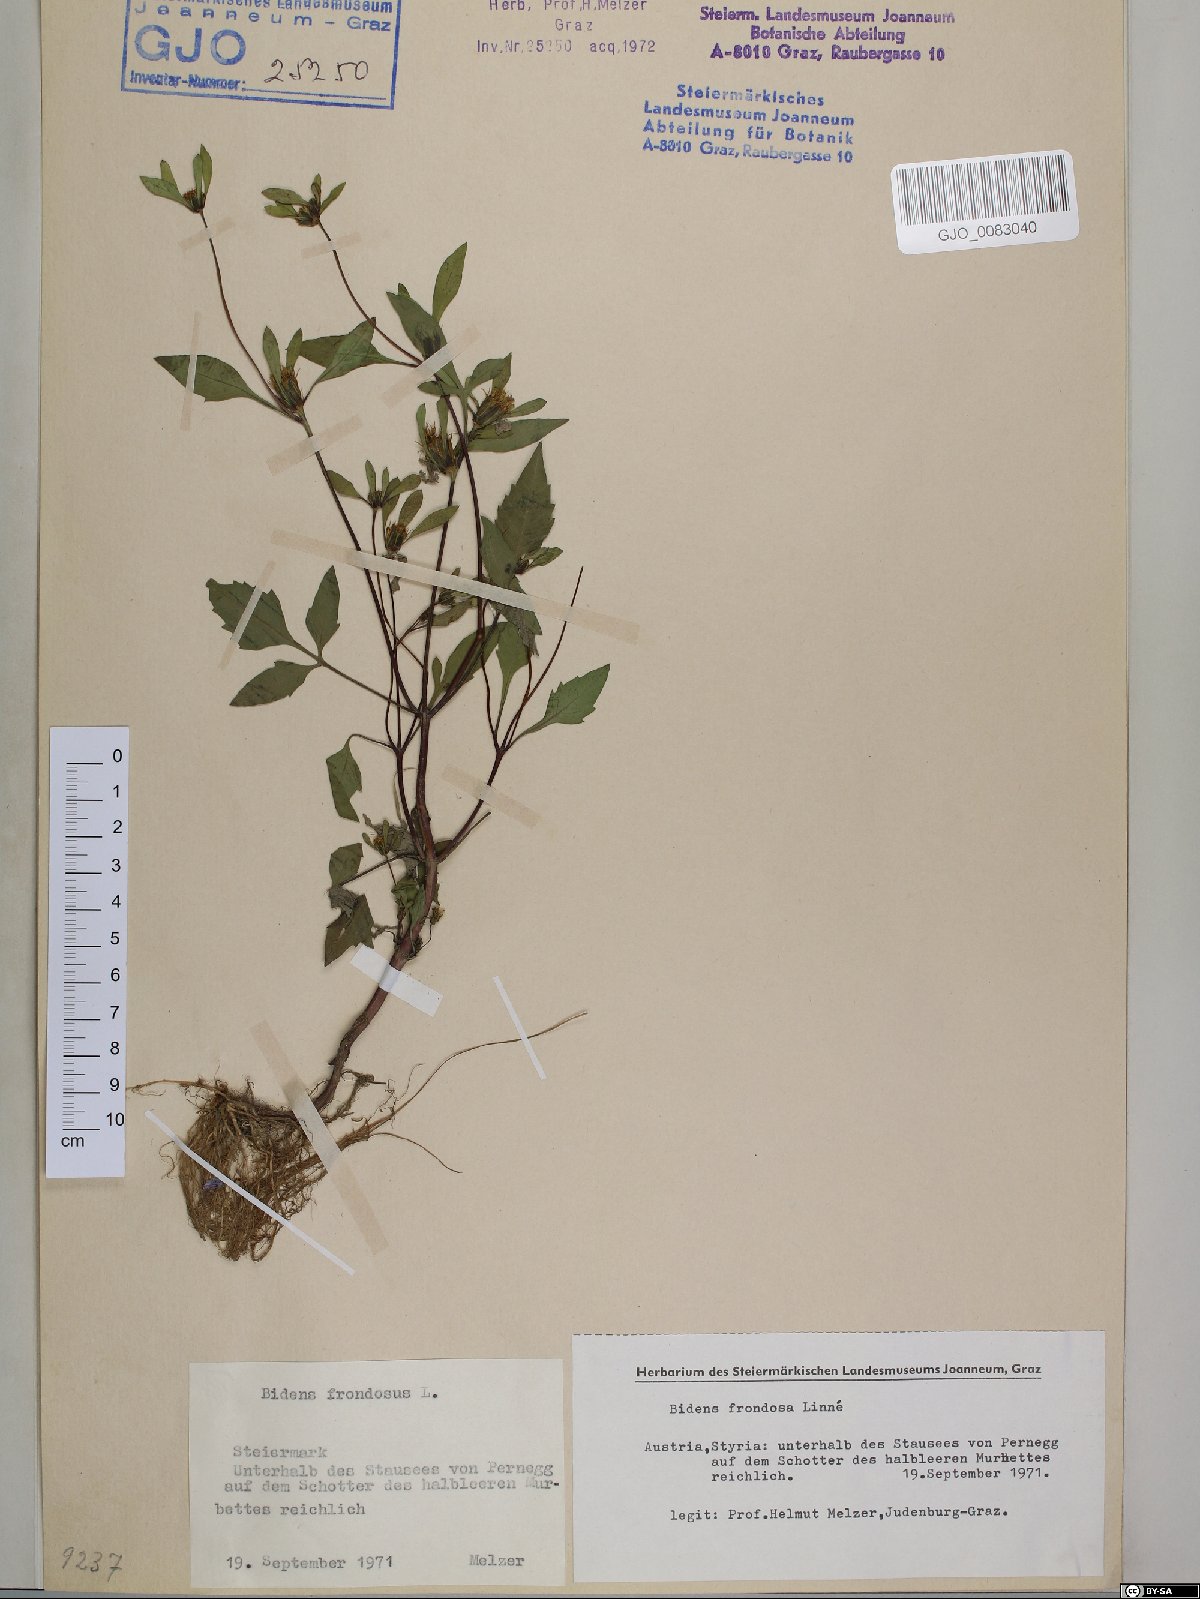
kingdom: Plantae
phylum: Tracheophyta
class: Magnoliopsida
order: Asterales
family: Asteraceae
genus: Bidens
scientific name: Bidens frondosa
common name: Beggarticks
